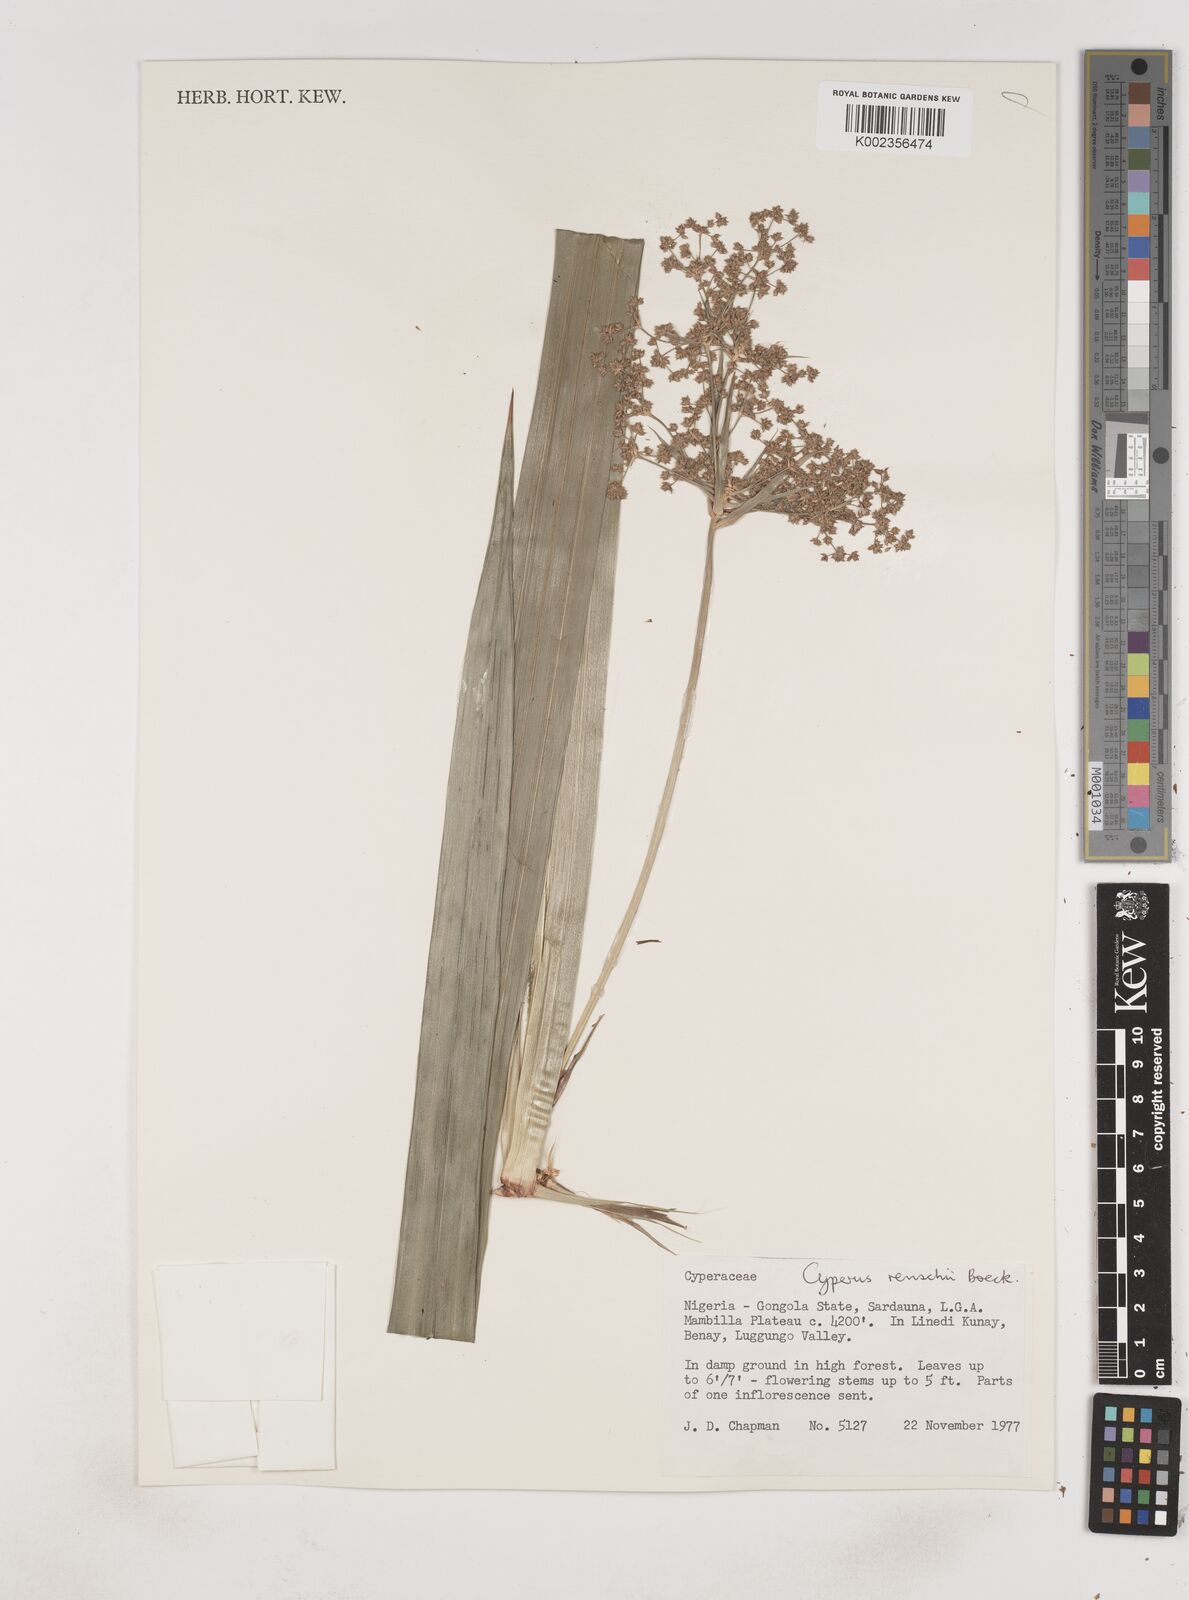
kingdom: Plantae
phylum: Tracheophyta
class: Liliopsida
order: Poales
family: Cyperaceae
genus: Cyperus
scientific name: Cyperus renschii
